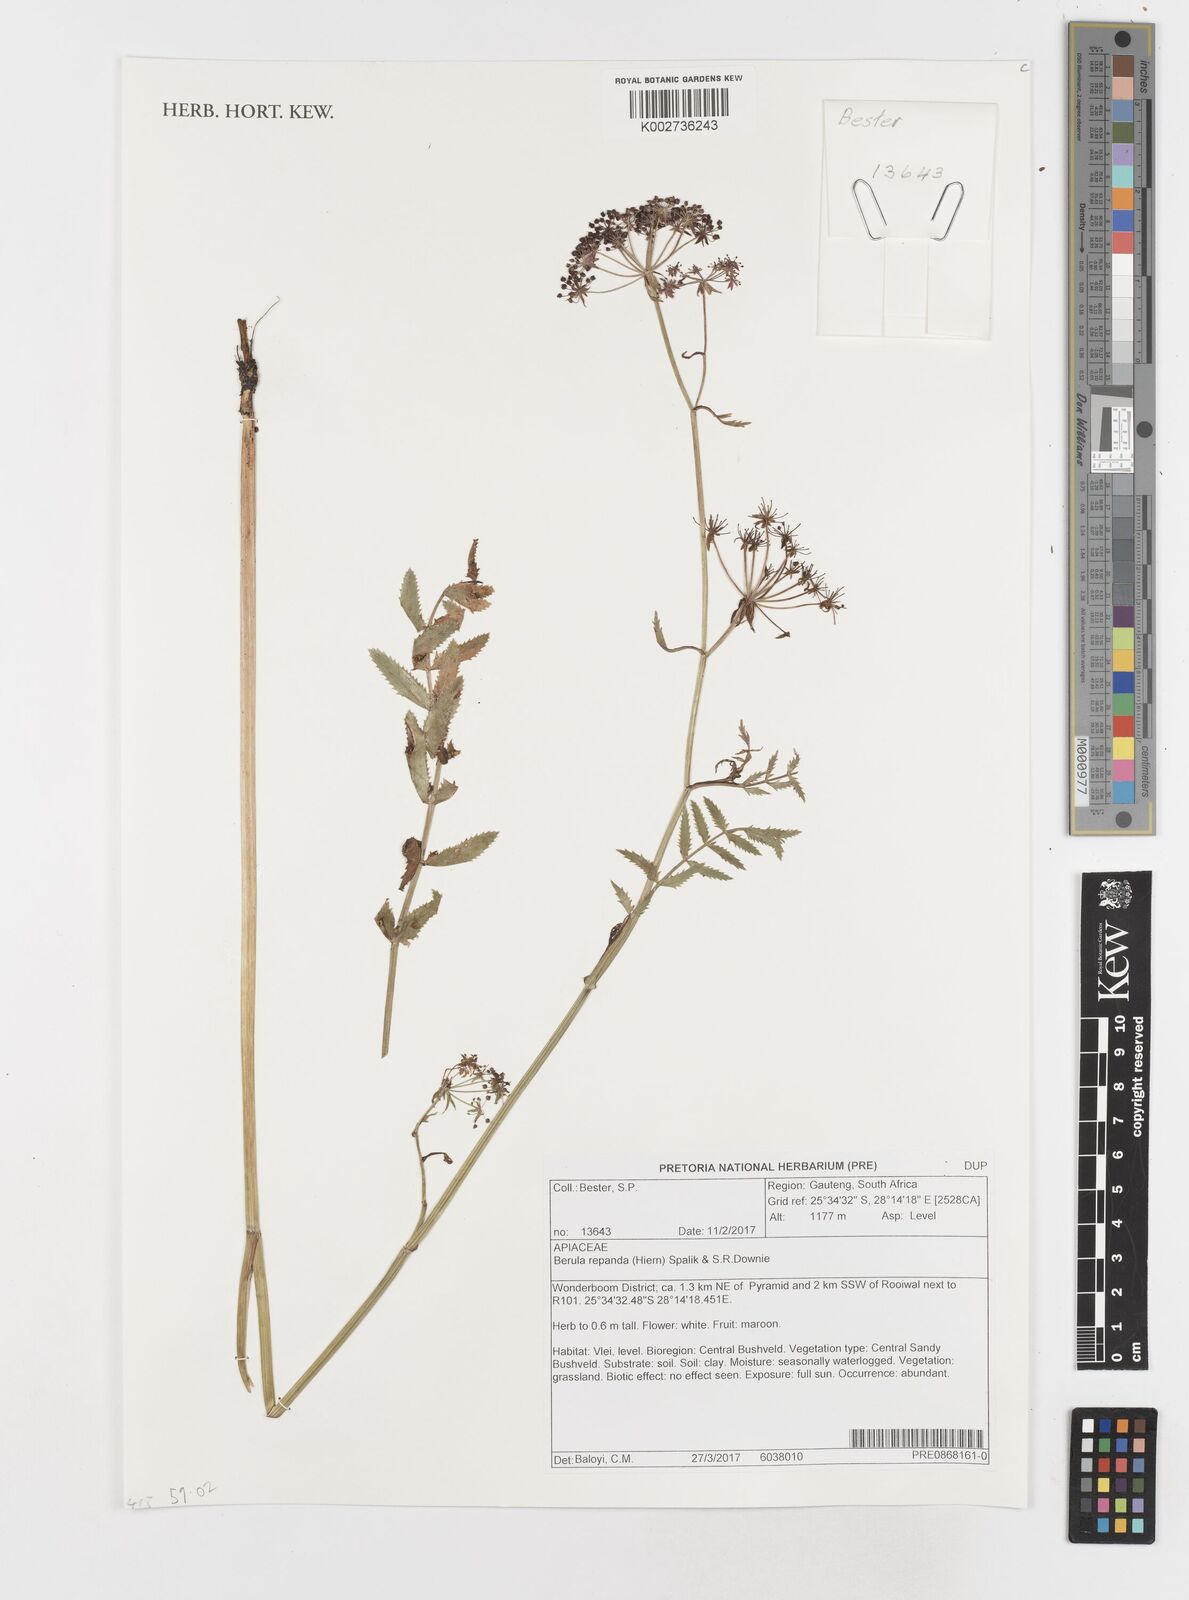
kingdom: Plantae
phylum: Tracheophyta
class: Magnoliopsida
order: Apiales
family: Apiaceae
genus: Berula
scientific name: Berula repanda
